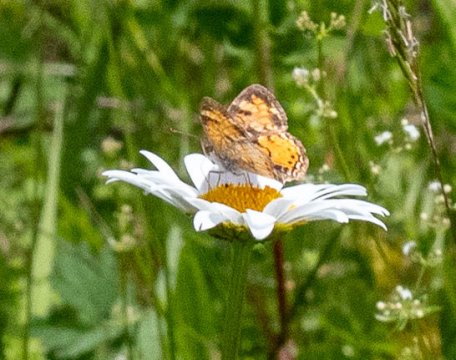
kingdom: Animalia
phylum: Arthropoda
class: Insecta
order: Lepidoptera
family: Nymphalidae
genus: Phyciodes
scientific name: Phyciodes
